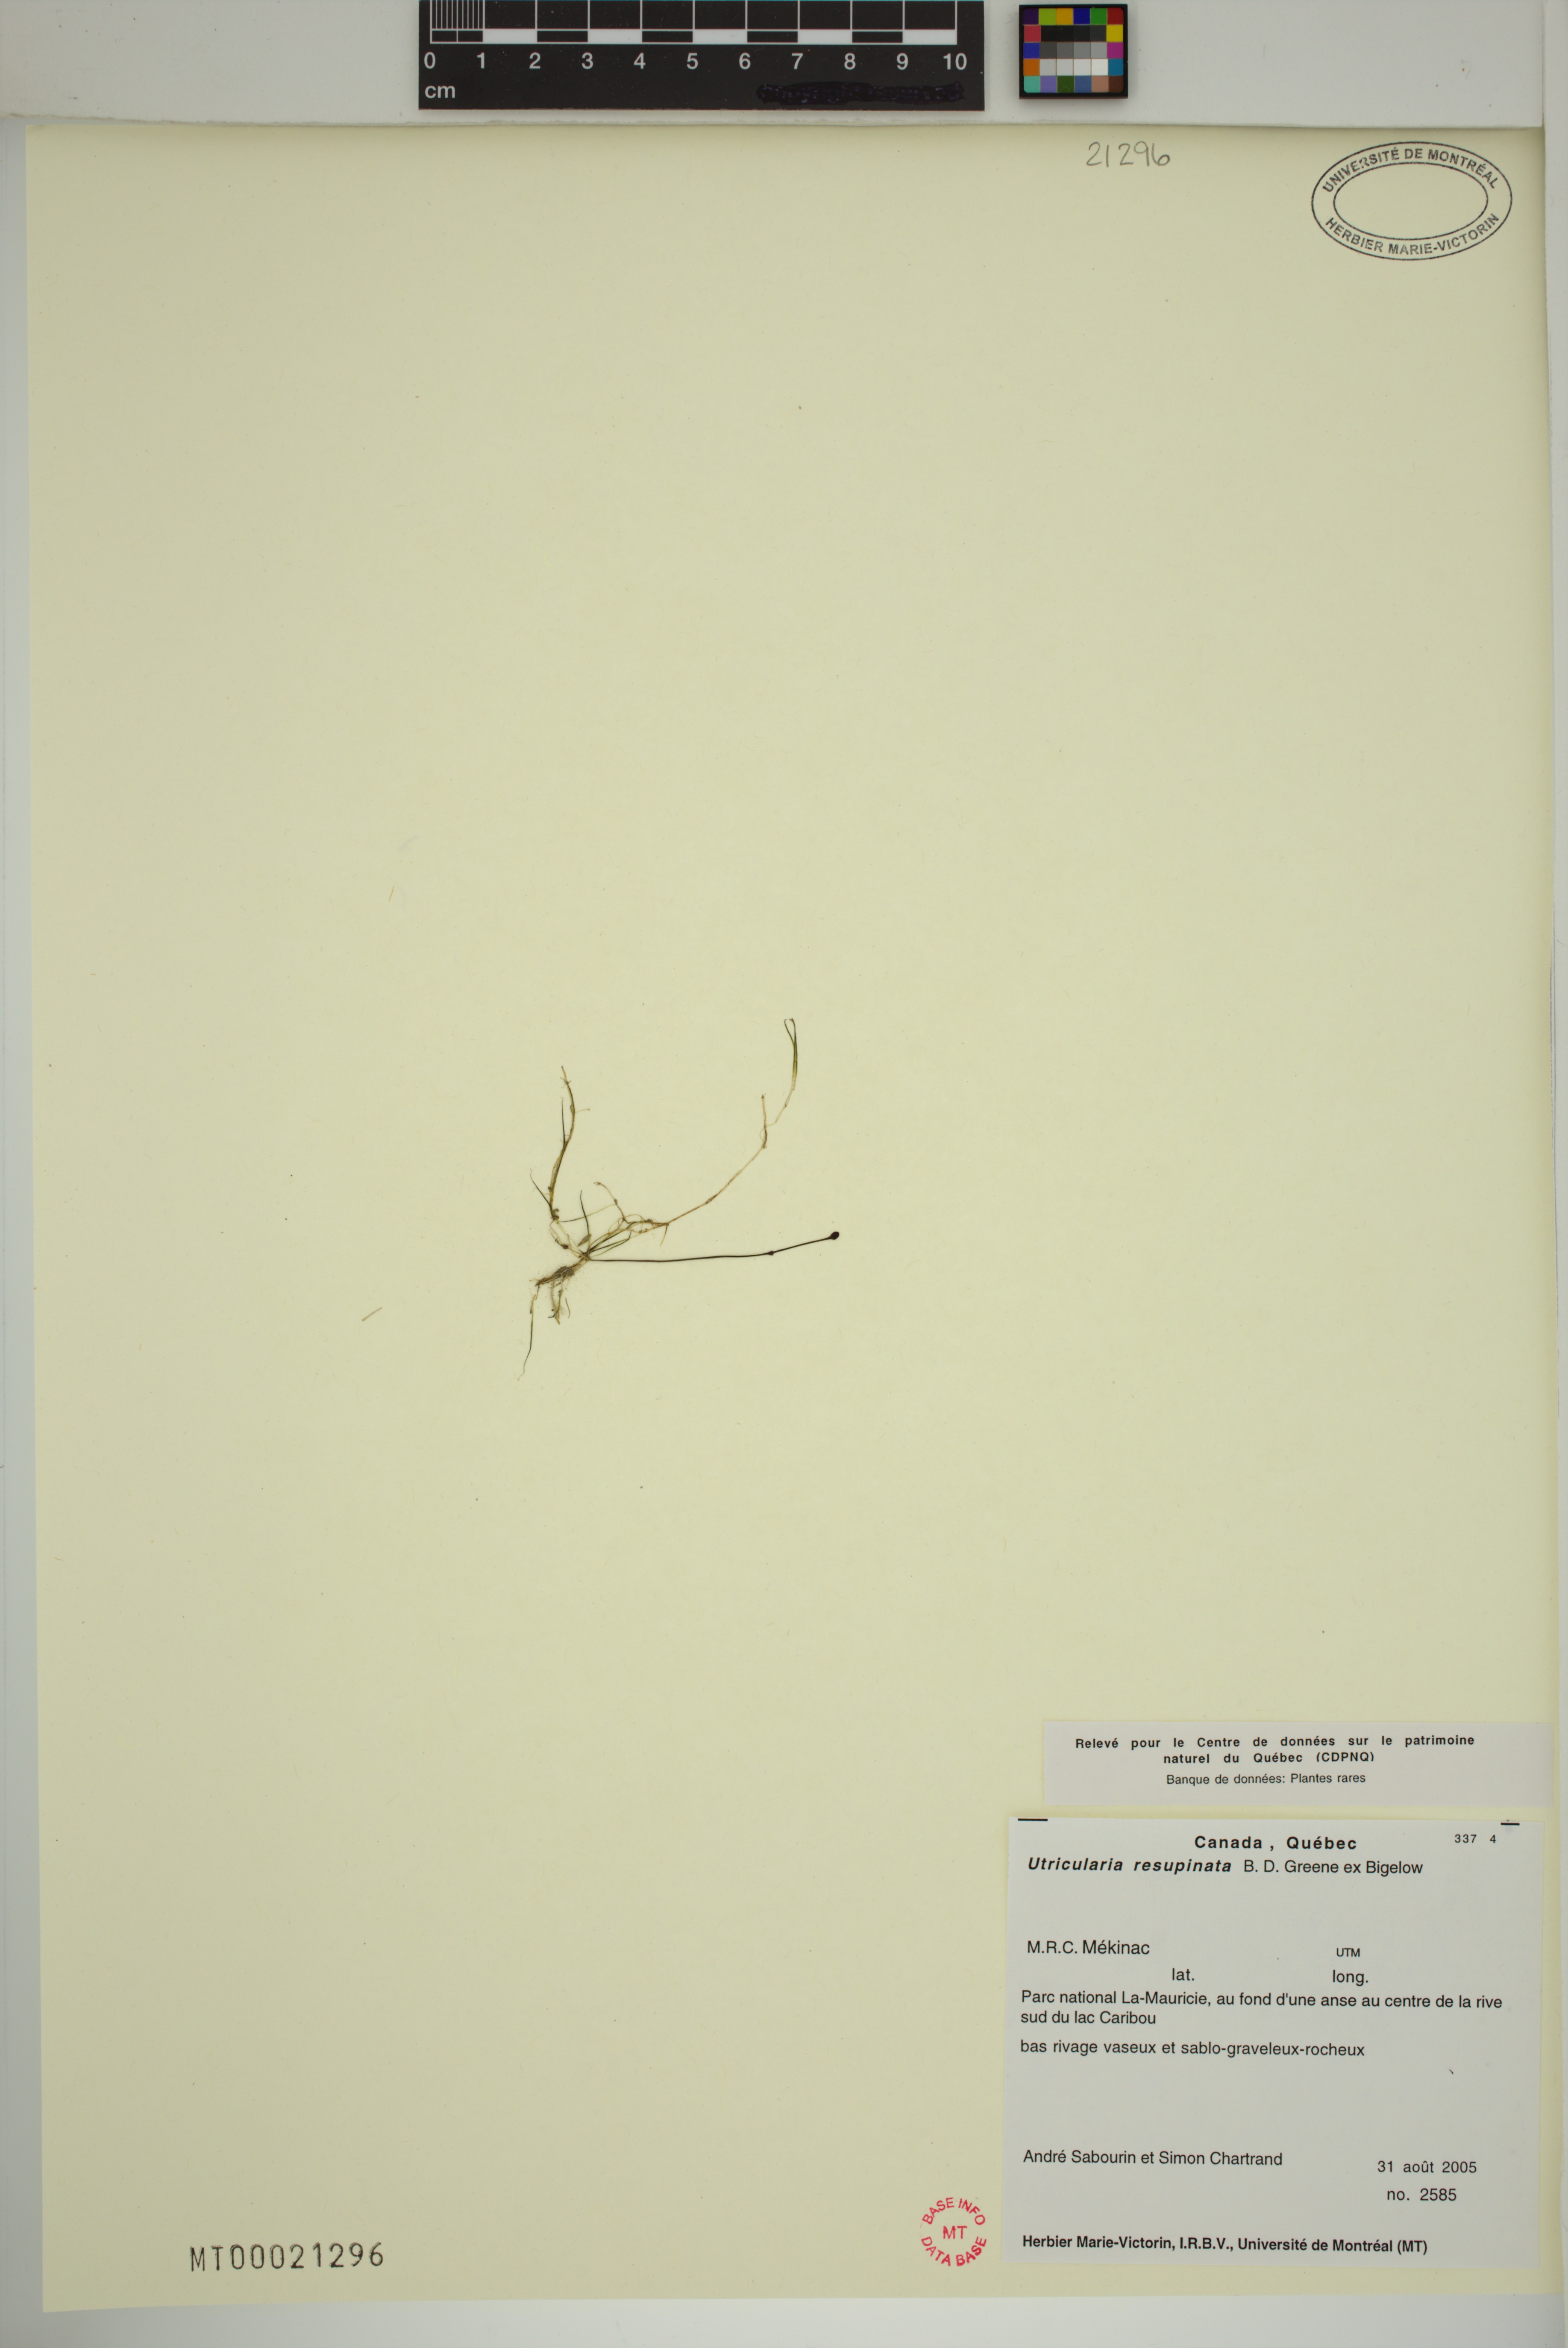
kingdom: Plantae
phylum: Tracheophyta
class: Magnoliopsida
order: Lamiales
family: Lentibulariaceae
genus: Utricularia
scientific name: Utricularia resupinata
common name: Northeastern bladderwort
